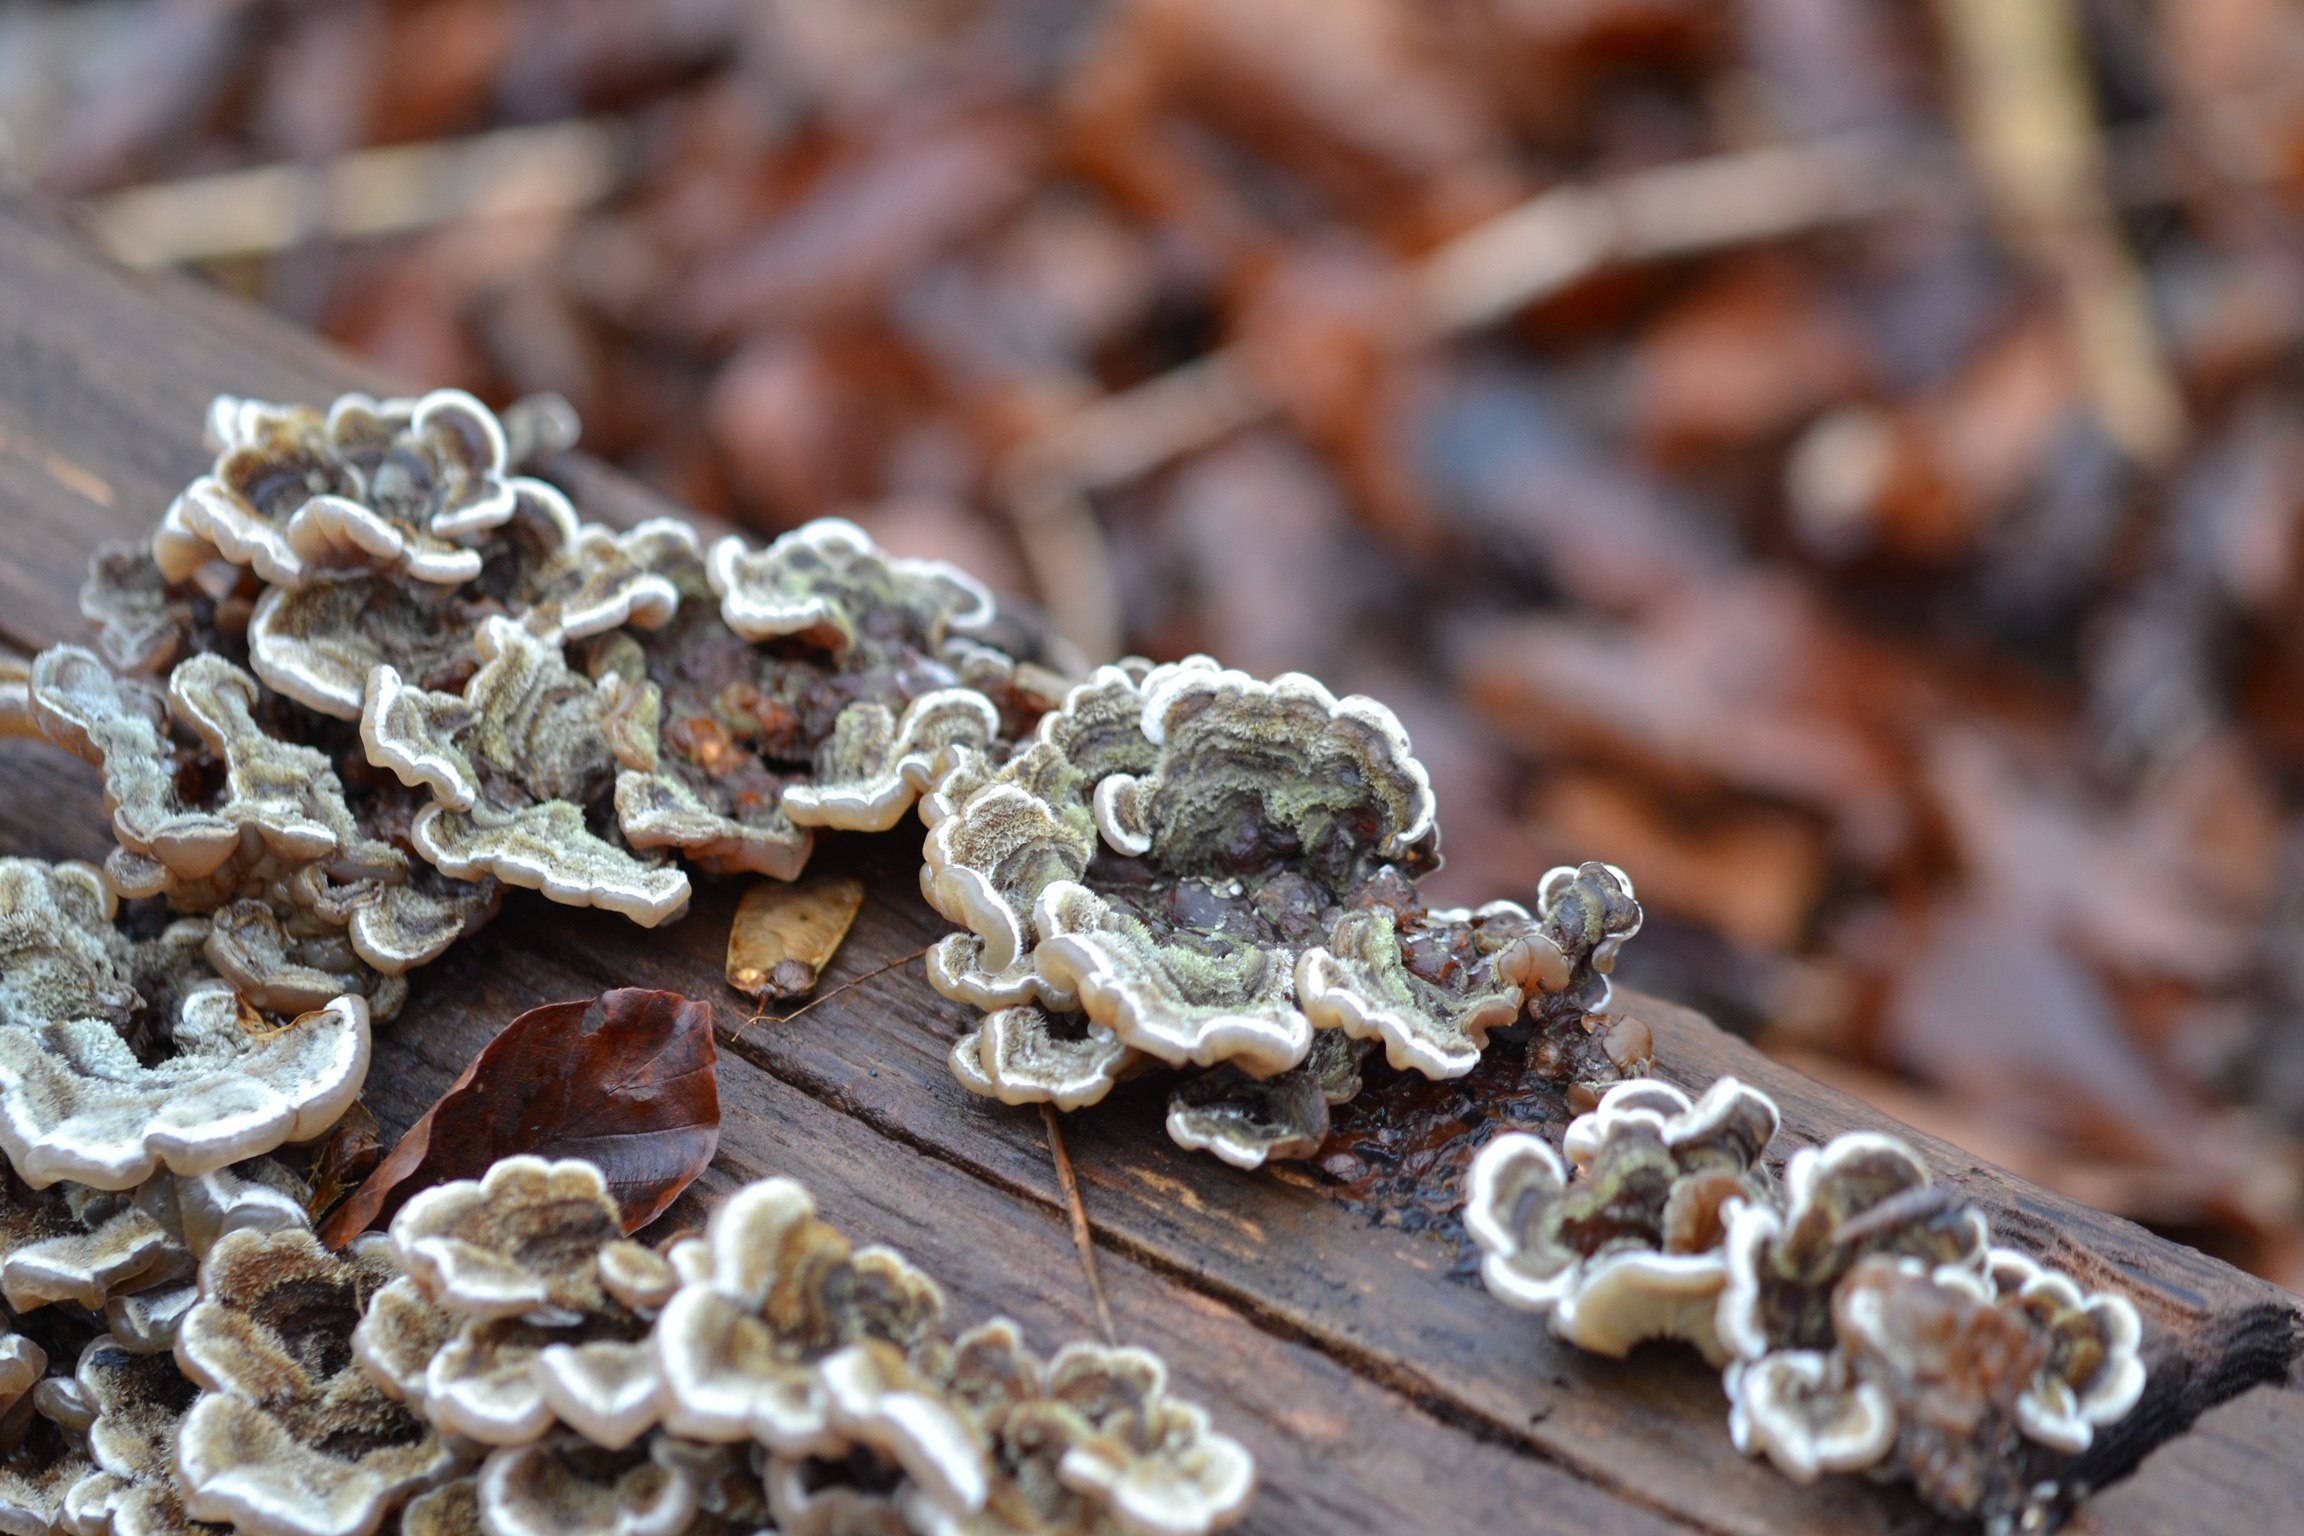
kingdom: Fungi
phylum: Basidiomycota
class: Agaricomycetes
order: Auriculariales
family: Auriculariaceae
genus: Auricularia
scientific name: Auricularia mesenterica
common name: håret judasøre
